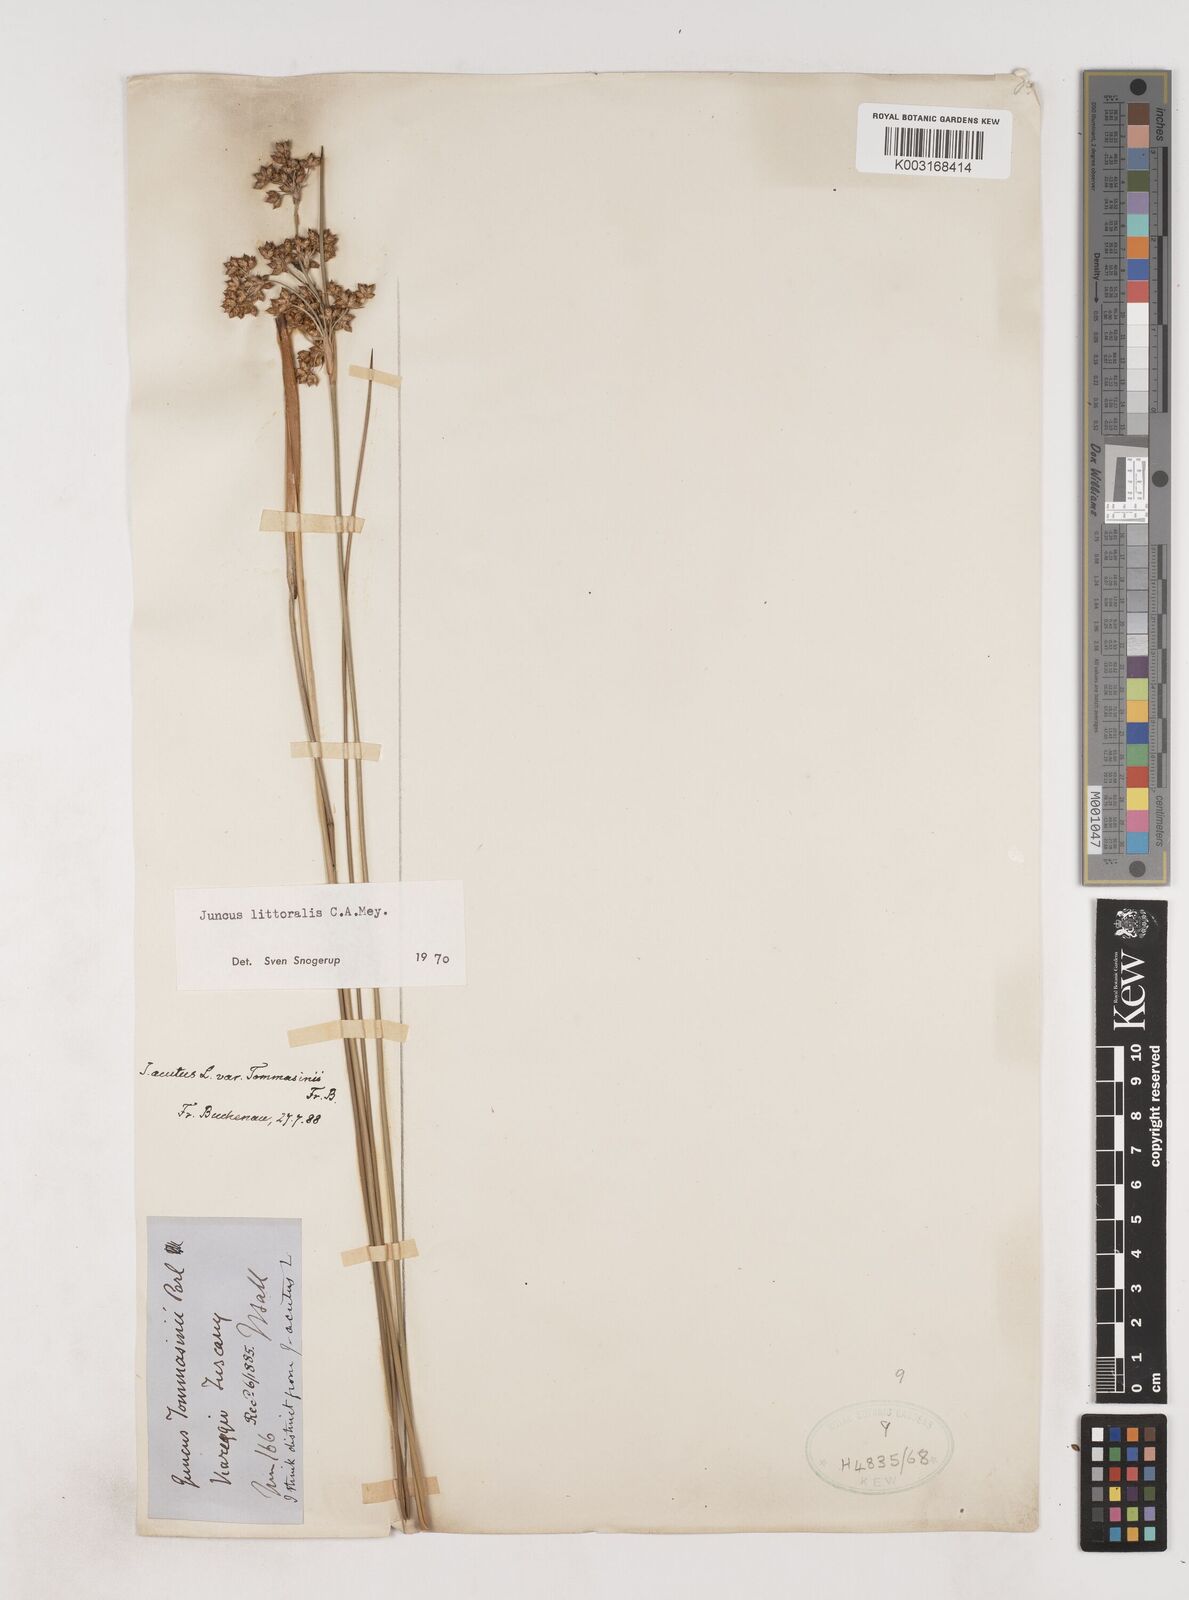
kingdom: Plantae
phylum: Tracheophyta
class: Liliopsida
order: Poales
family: Juncaceae
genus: Juncus
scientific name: Juncus
